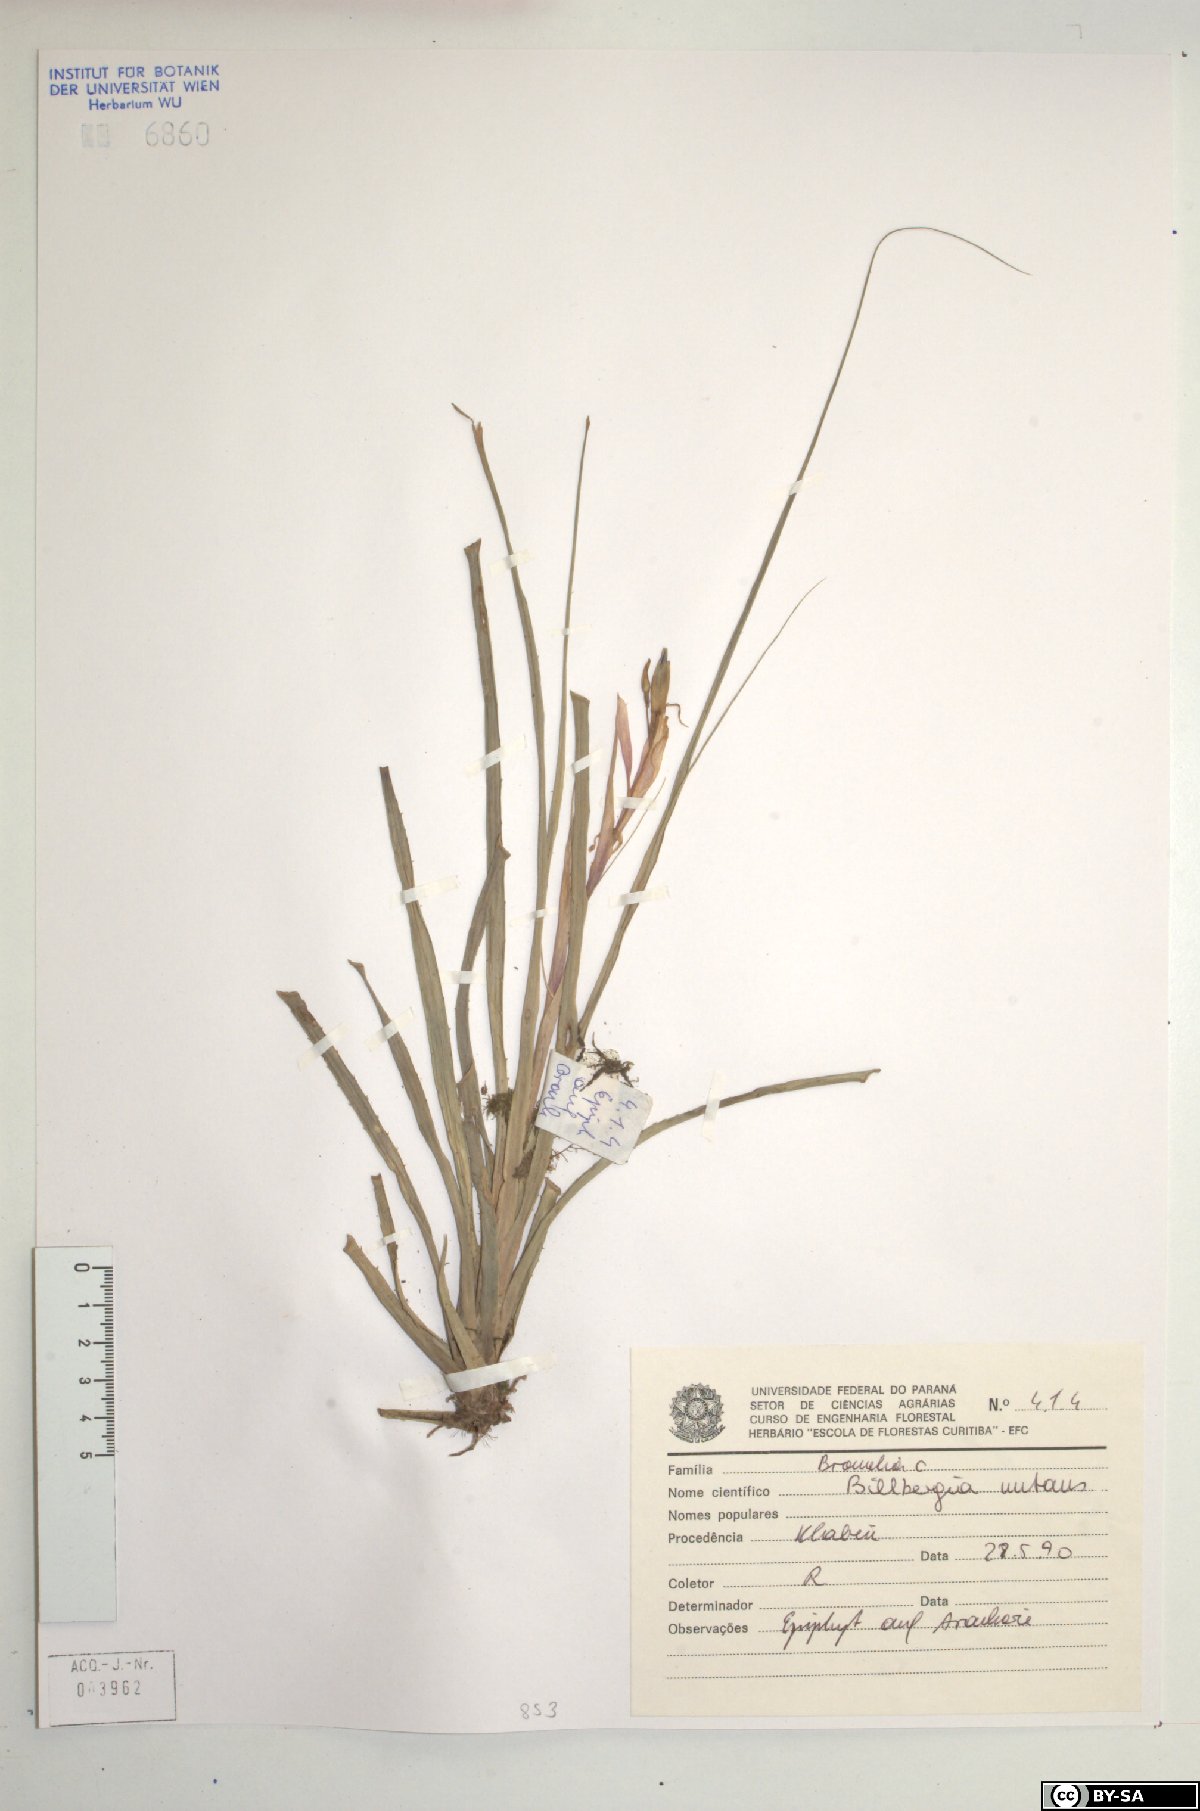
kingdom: Plantae
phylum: Tracheophyta
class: Liliopsida
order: Poales
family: Bromeliaceae
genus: Billbergia
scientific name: Billbergia nutans
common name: Friendship-plant
